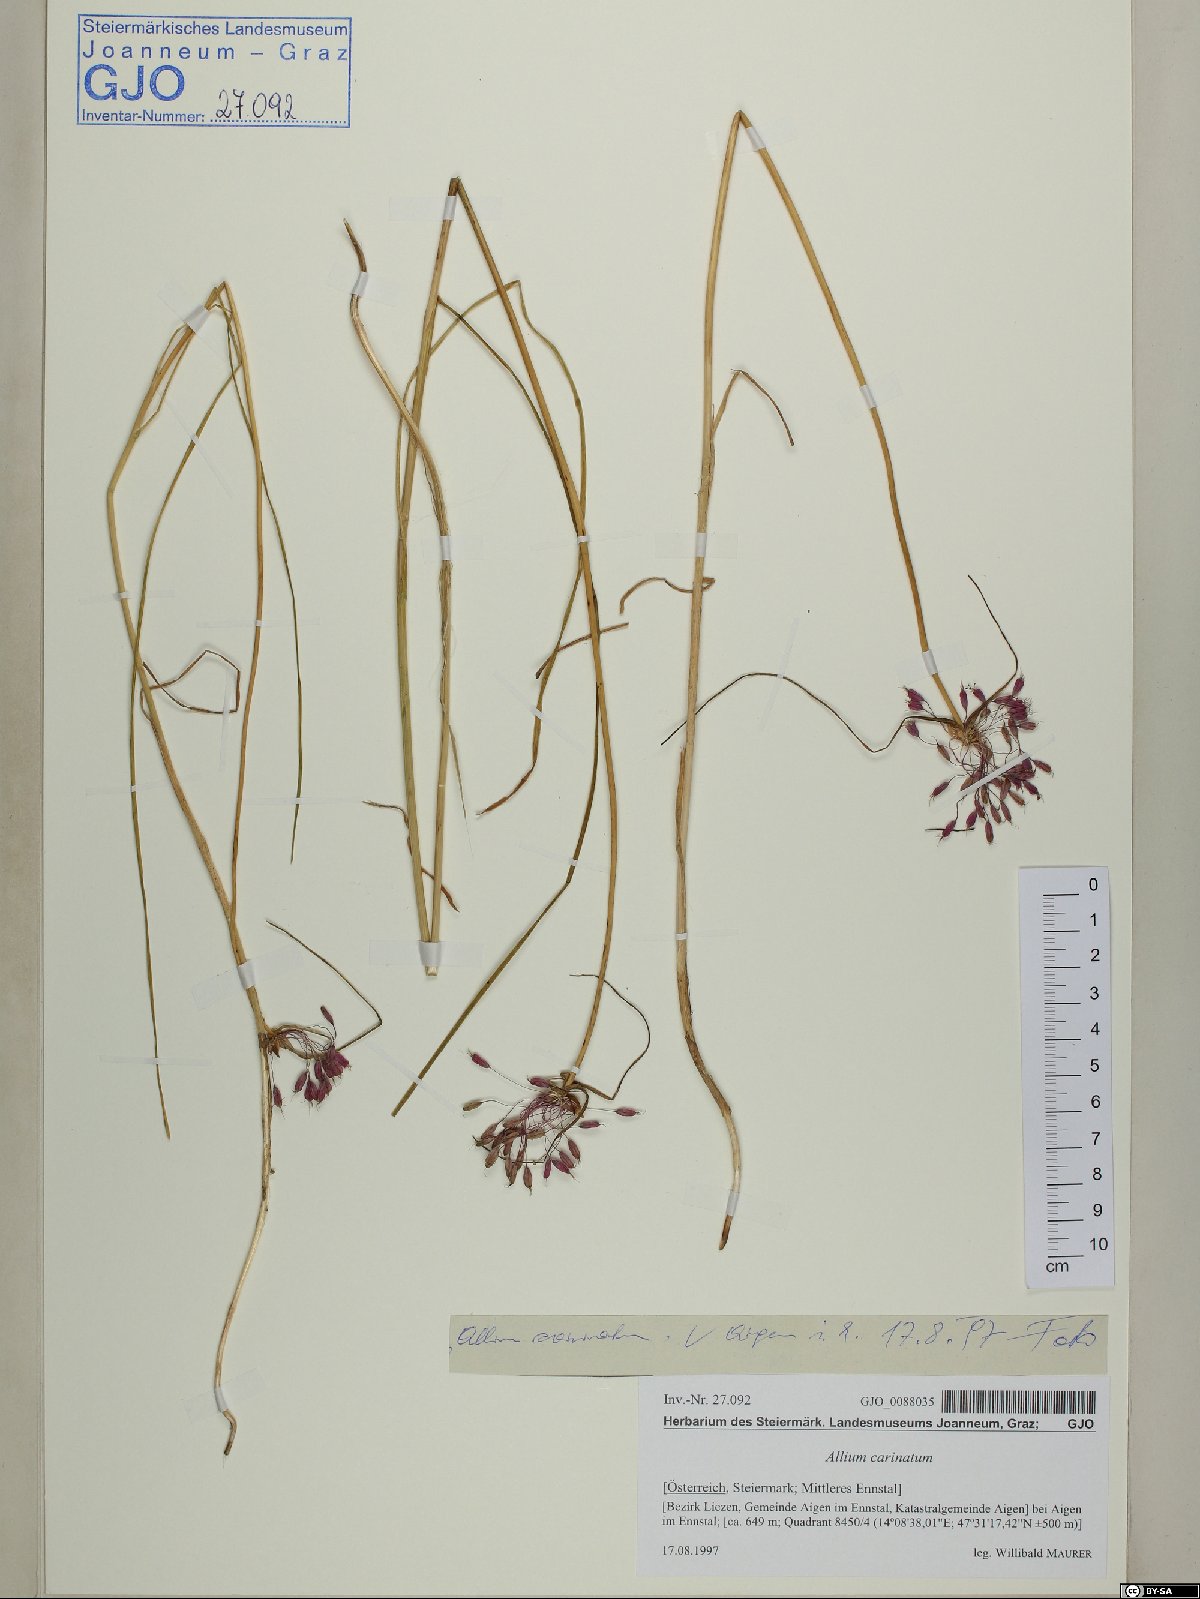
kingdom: Plantae
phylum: Tracheophyta
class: Liliopsida
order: Asparagales
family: Amaryllidaceae
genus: Allium
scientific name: Allium carinatum
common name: Keeled garlic
